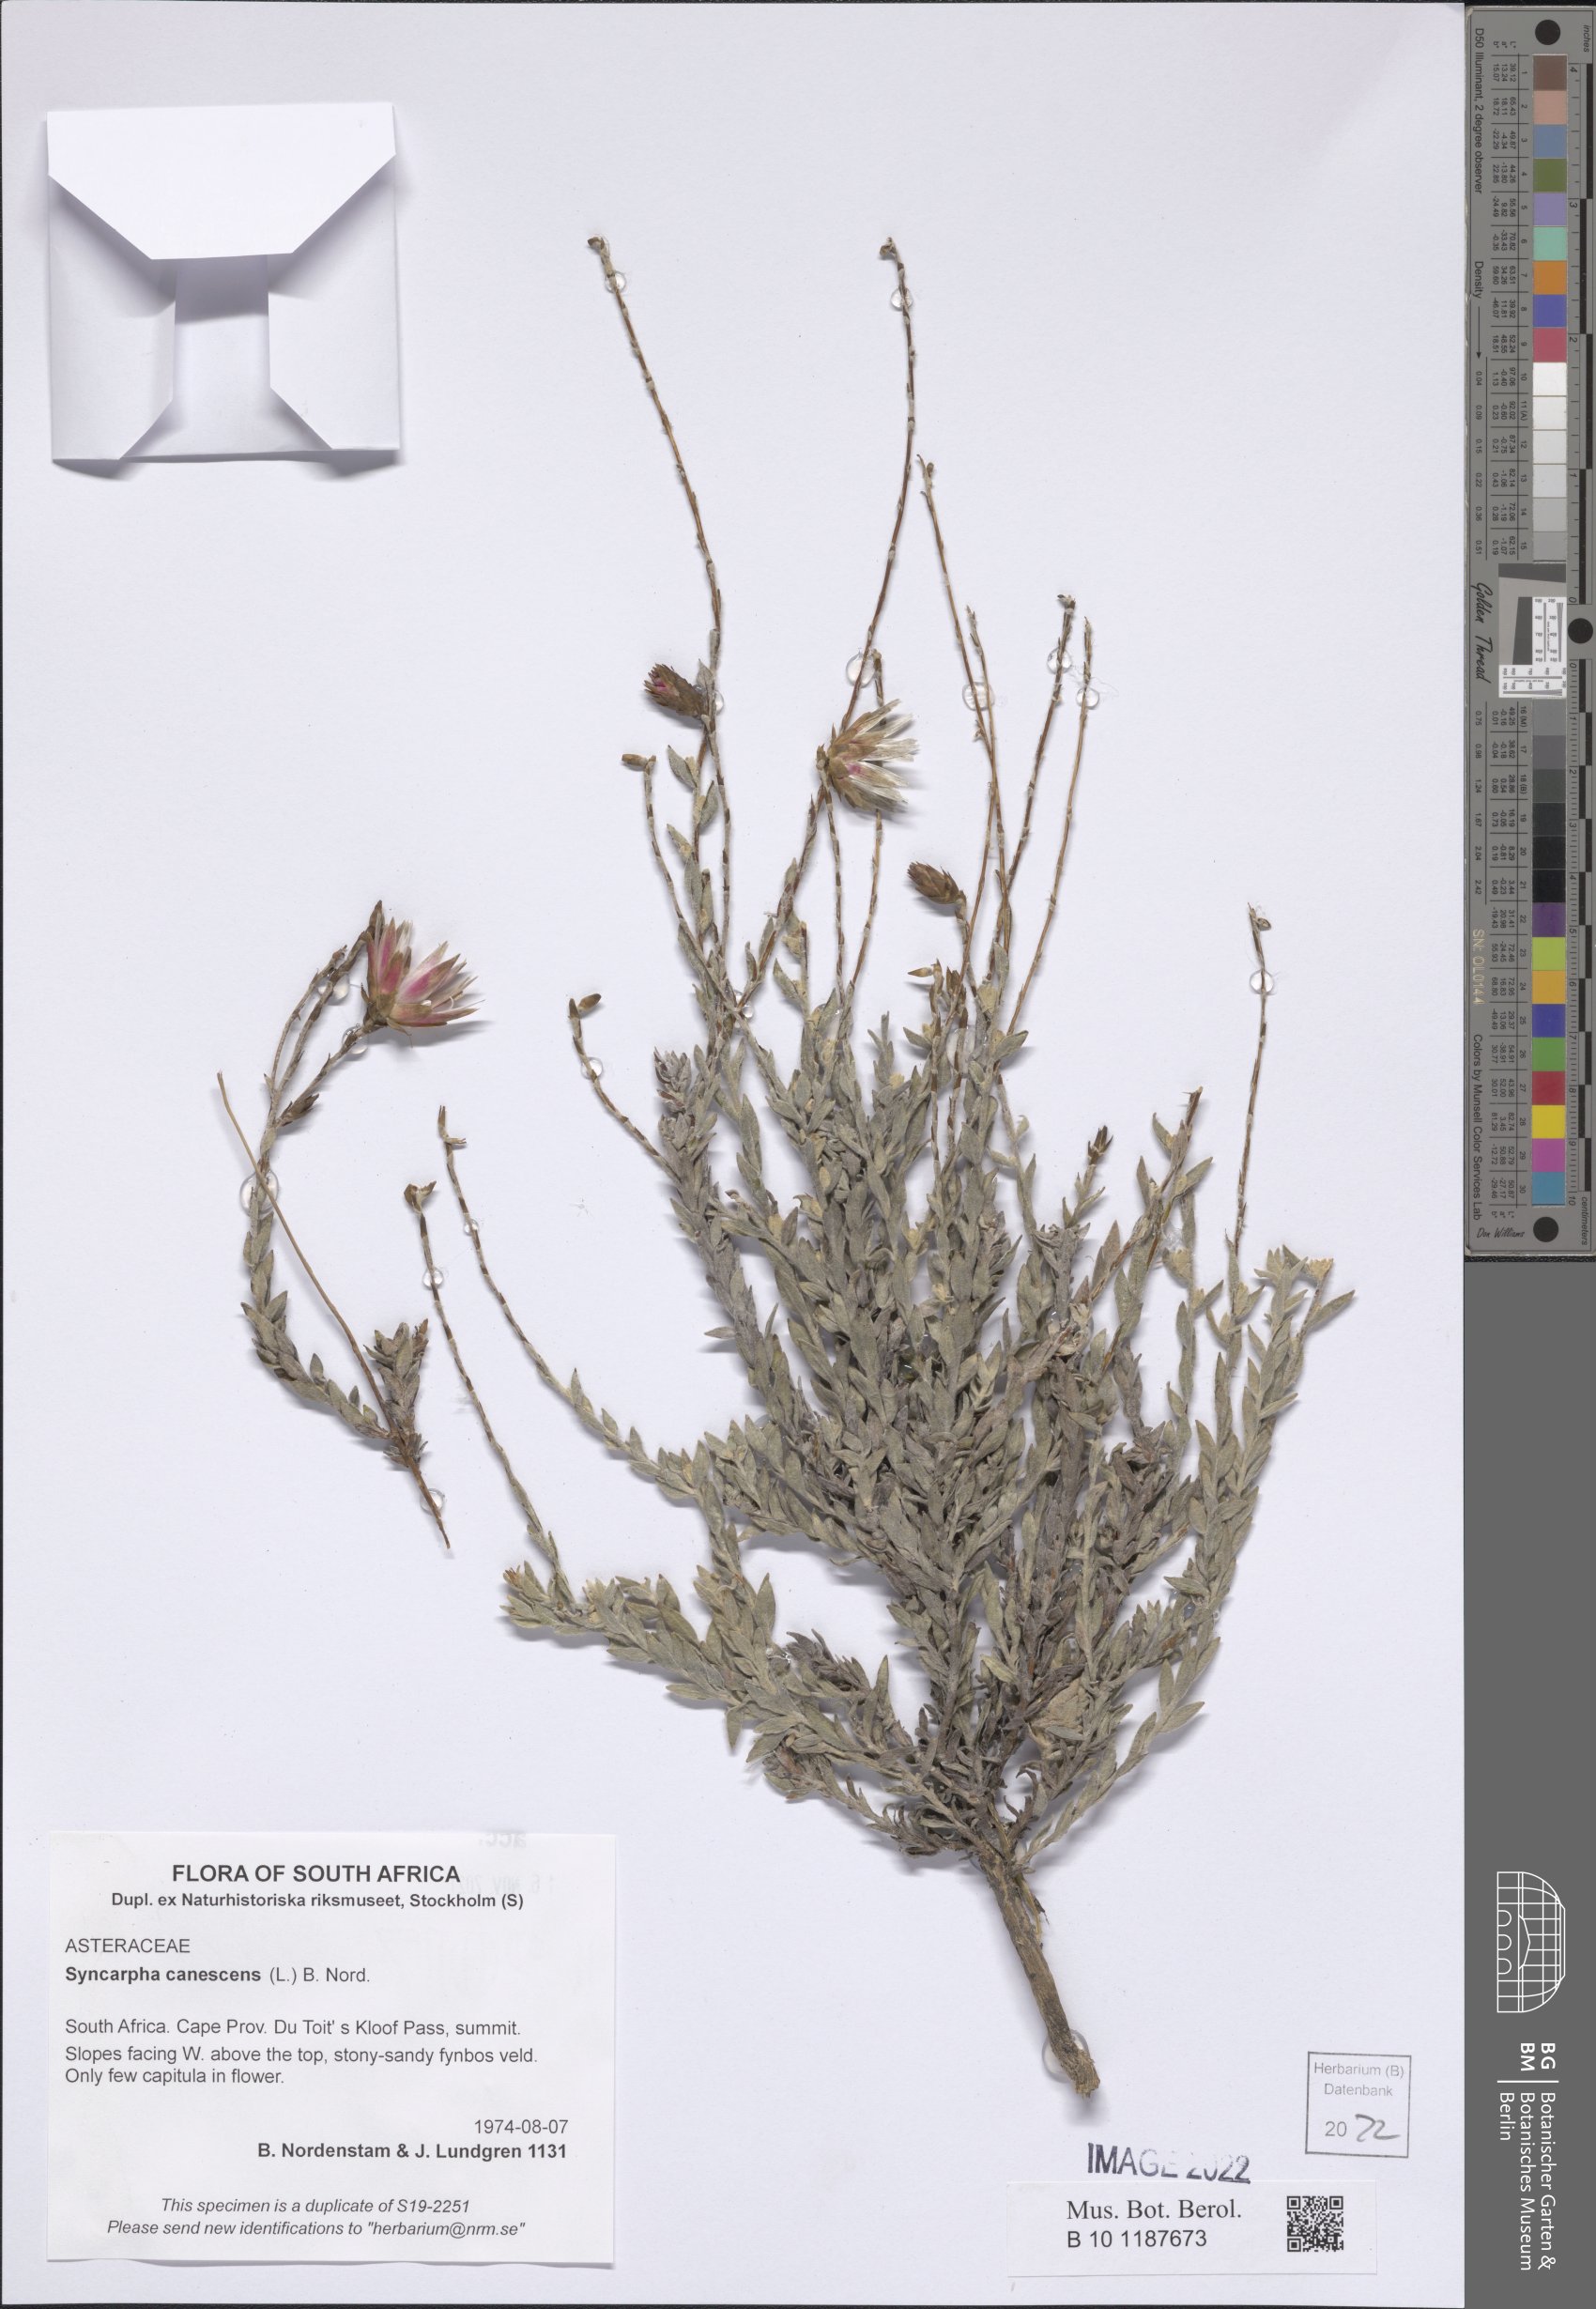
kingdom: Plantae
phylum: Tracheophyta
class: Magnoliopsida
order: Asterales
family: Asteraceae
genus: Syncarpha
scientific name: Syncarpha canescens
